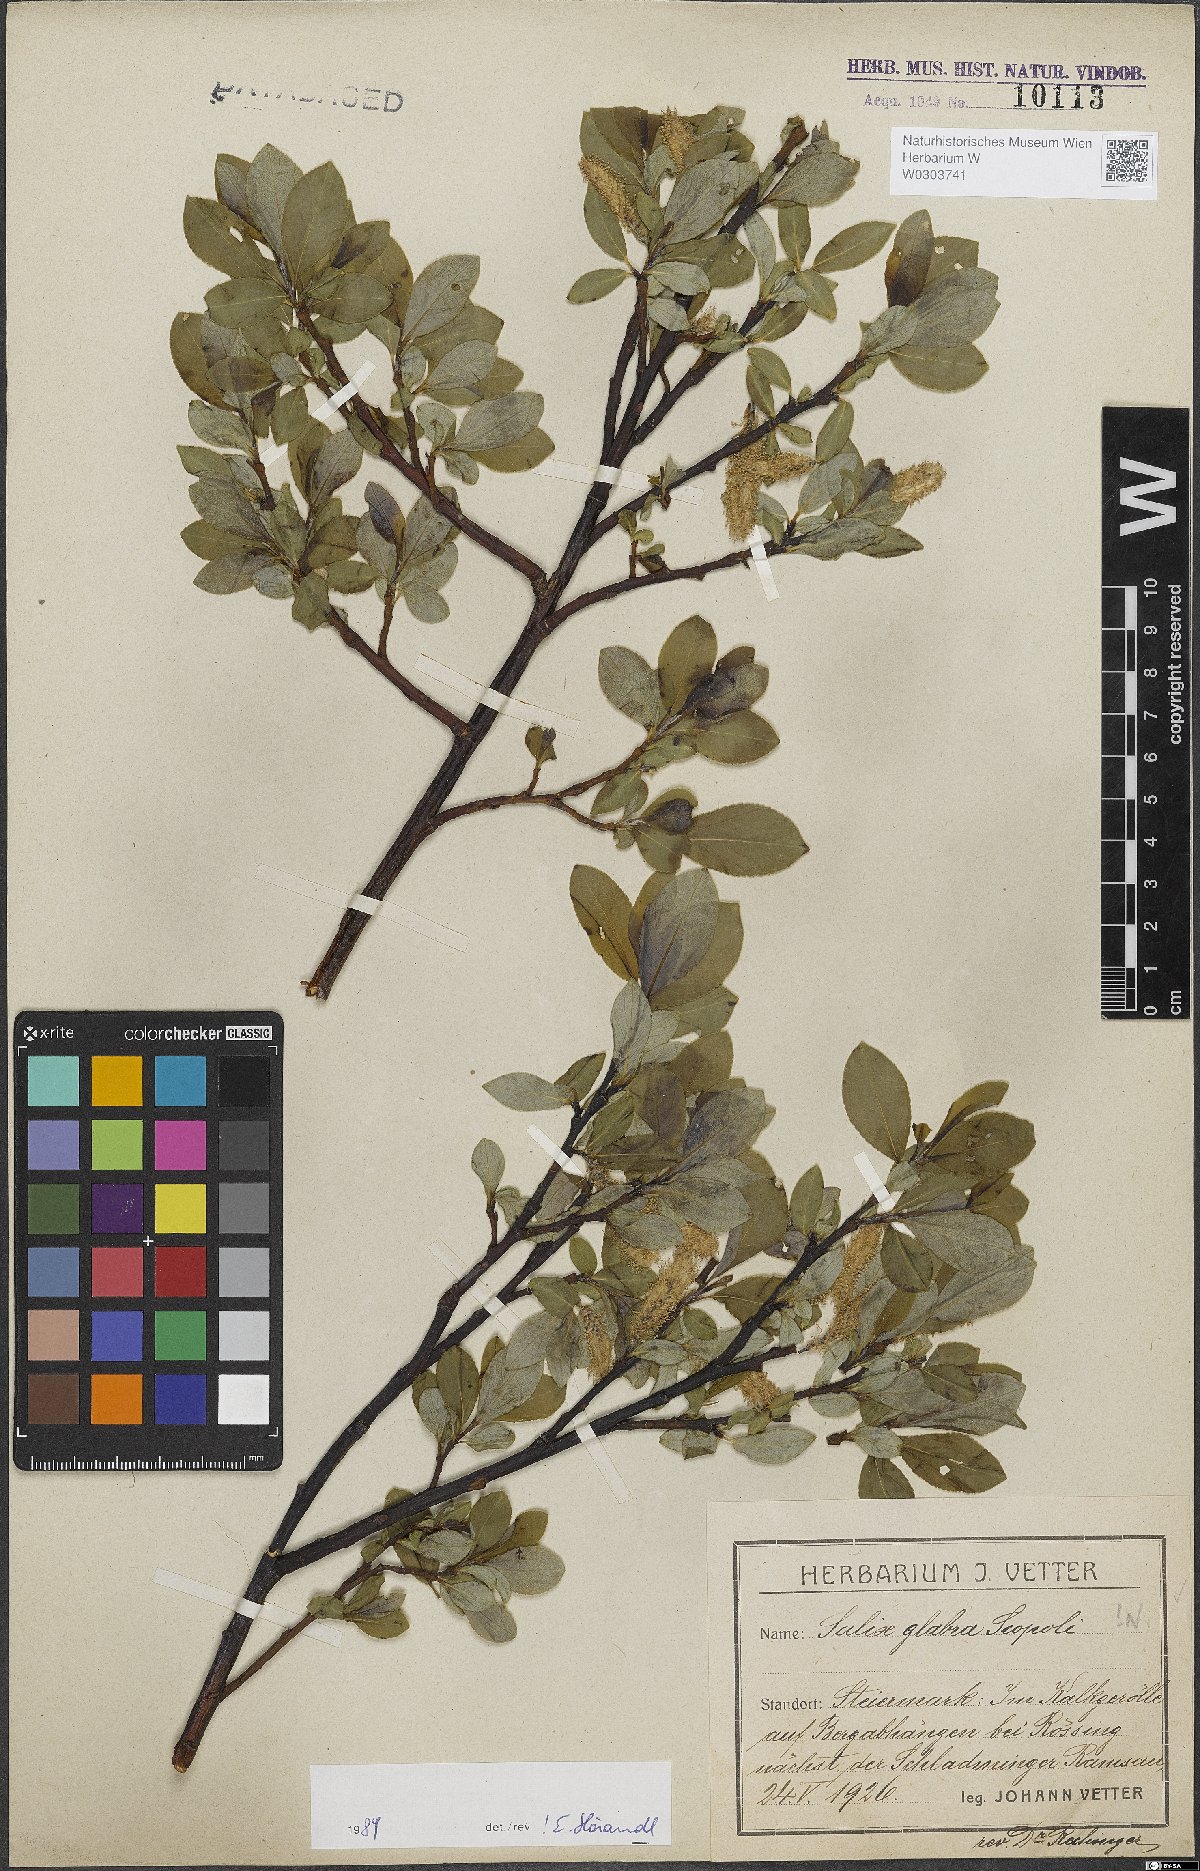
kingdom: Plantae
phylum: Tracheophyta
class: Magnoliopsida
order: Malpighiales
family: Salicaceae
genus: Salix
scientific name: Salix glabra
